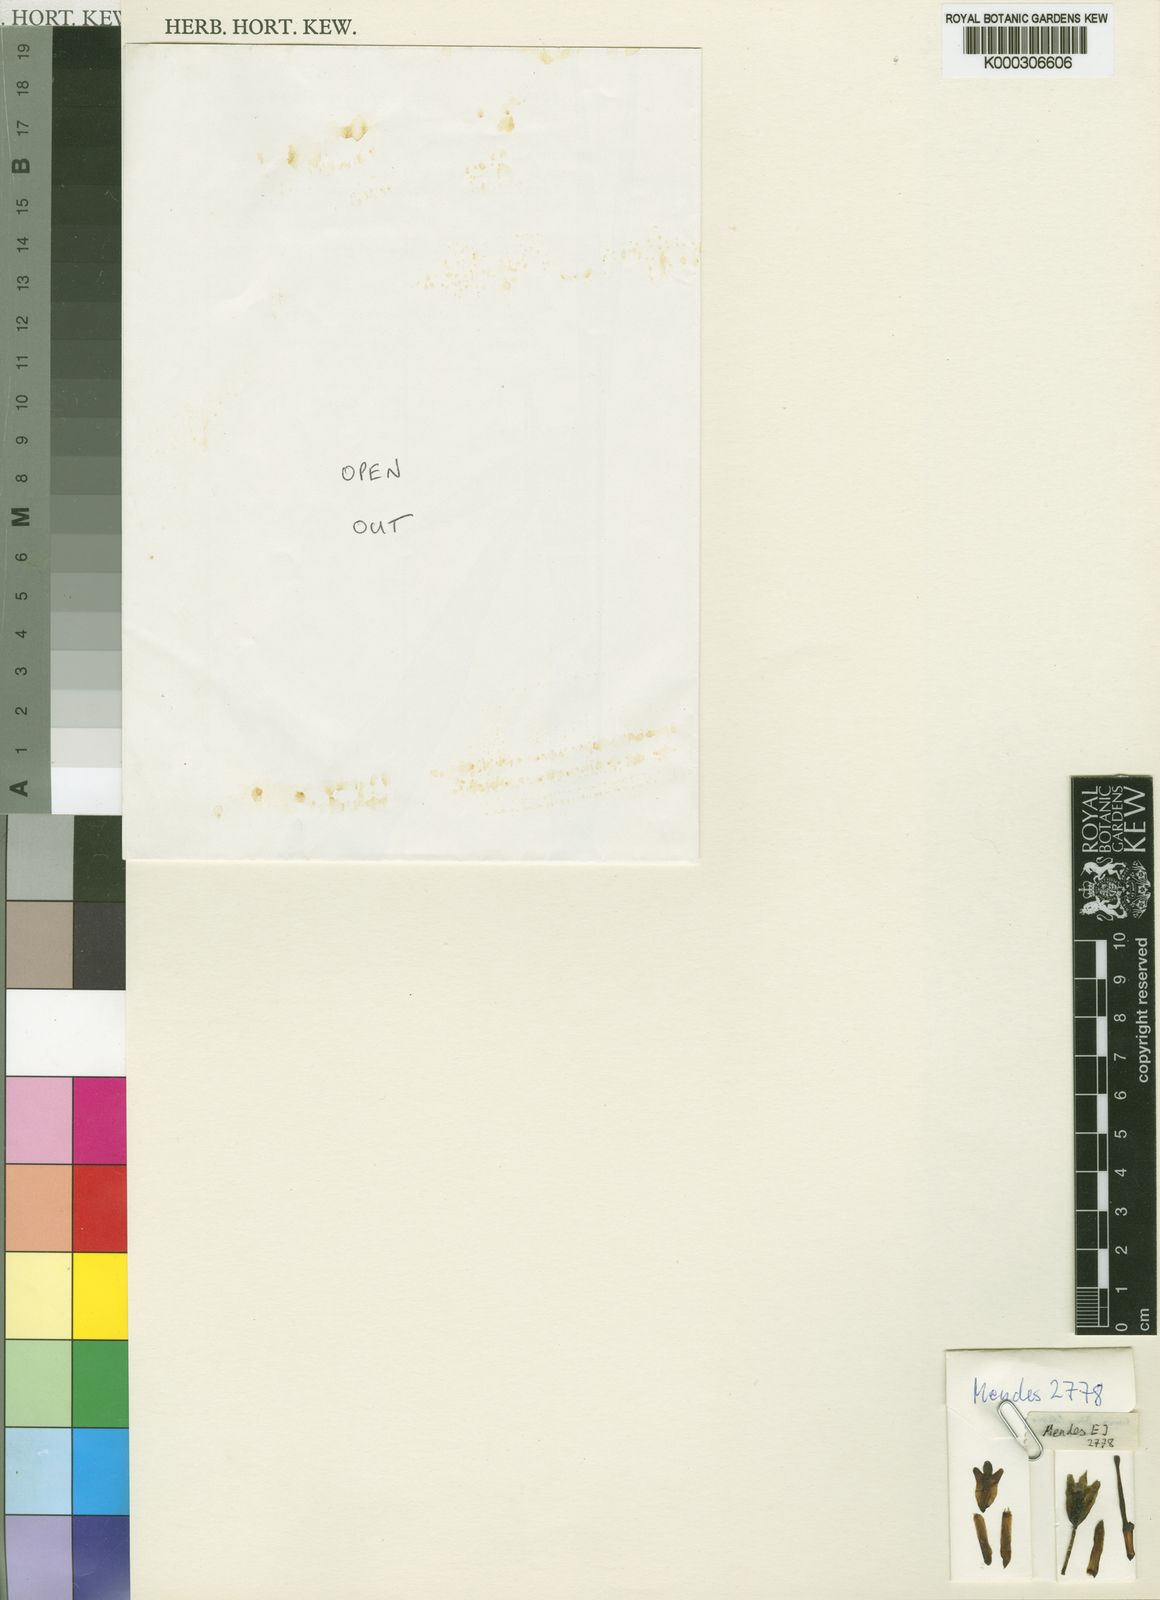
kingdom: Plantae
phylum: Tracheophyta
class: Liliopsida
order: Asparagales
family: Orchidaceae
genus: Eulophia
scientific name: Eulophia clandestina
